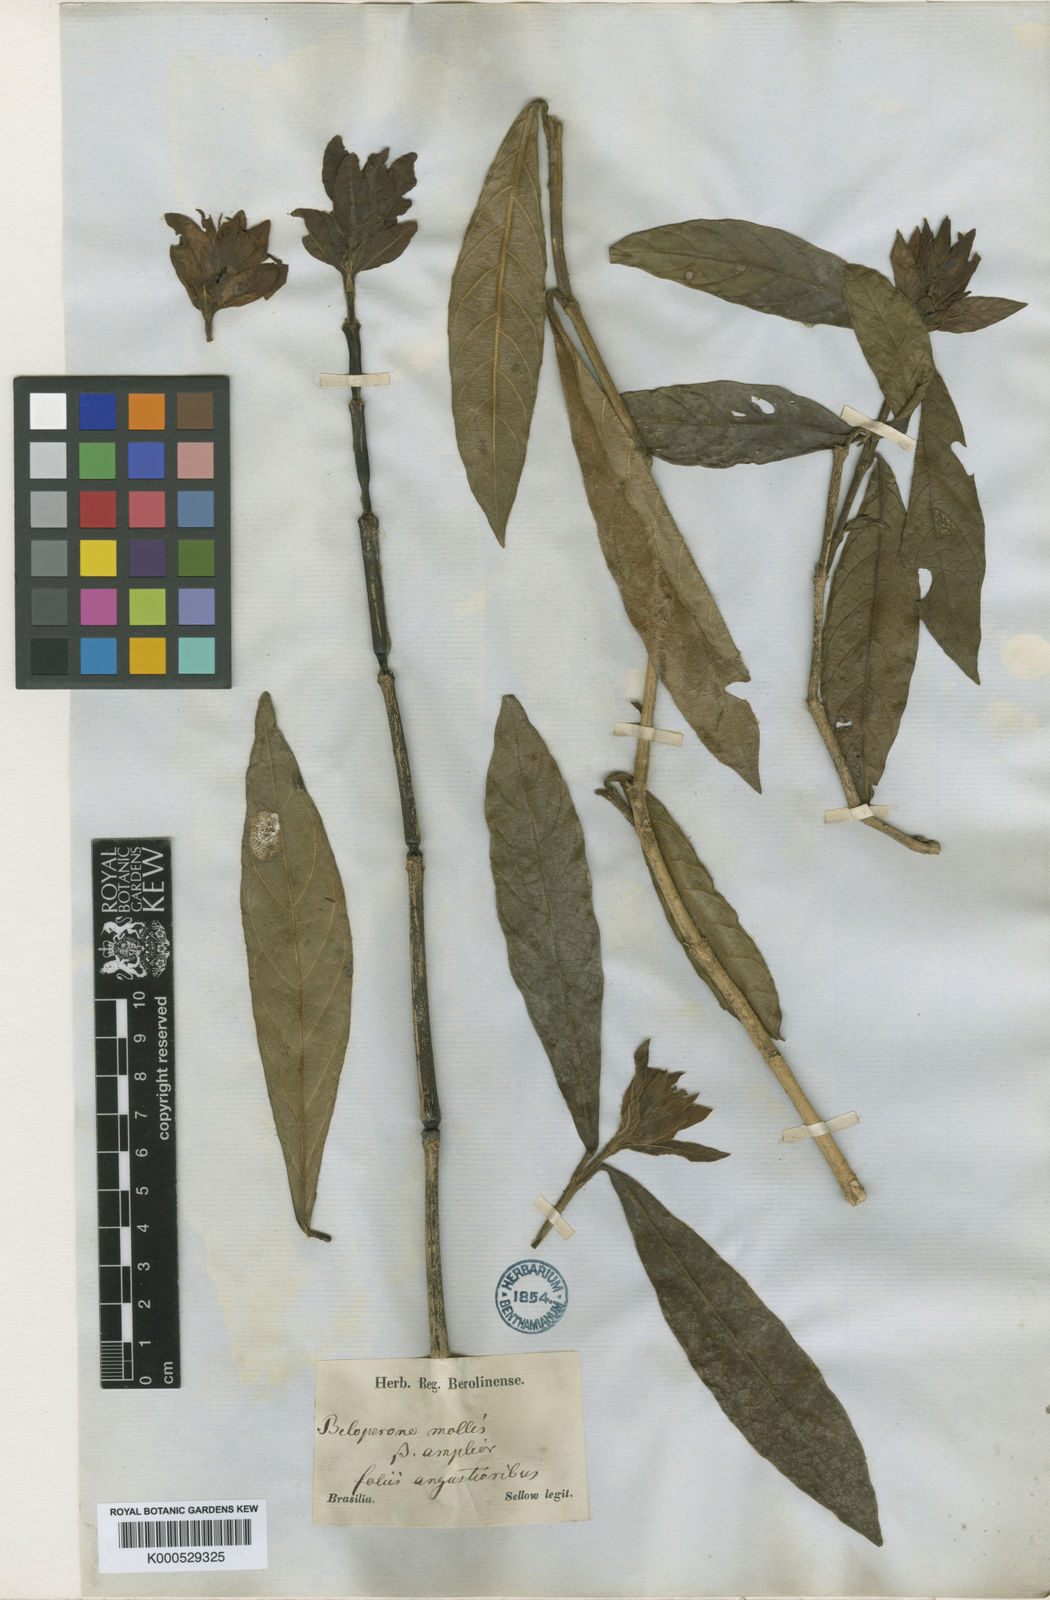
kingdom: Plantae
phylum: Tracheophyta
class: Magnoliopsida
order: Lamiales
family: Acanthaceae
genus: Justicia
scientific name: Justicia riparia
